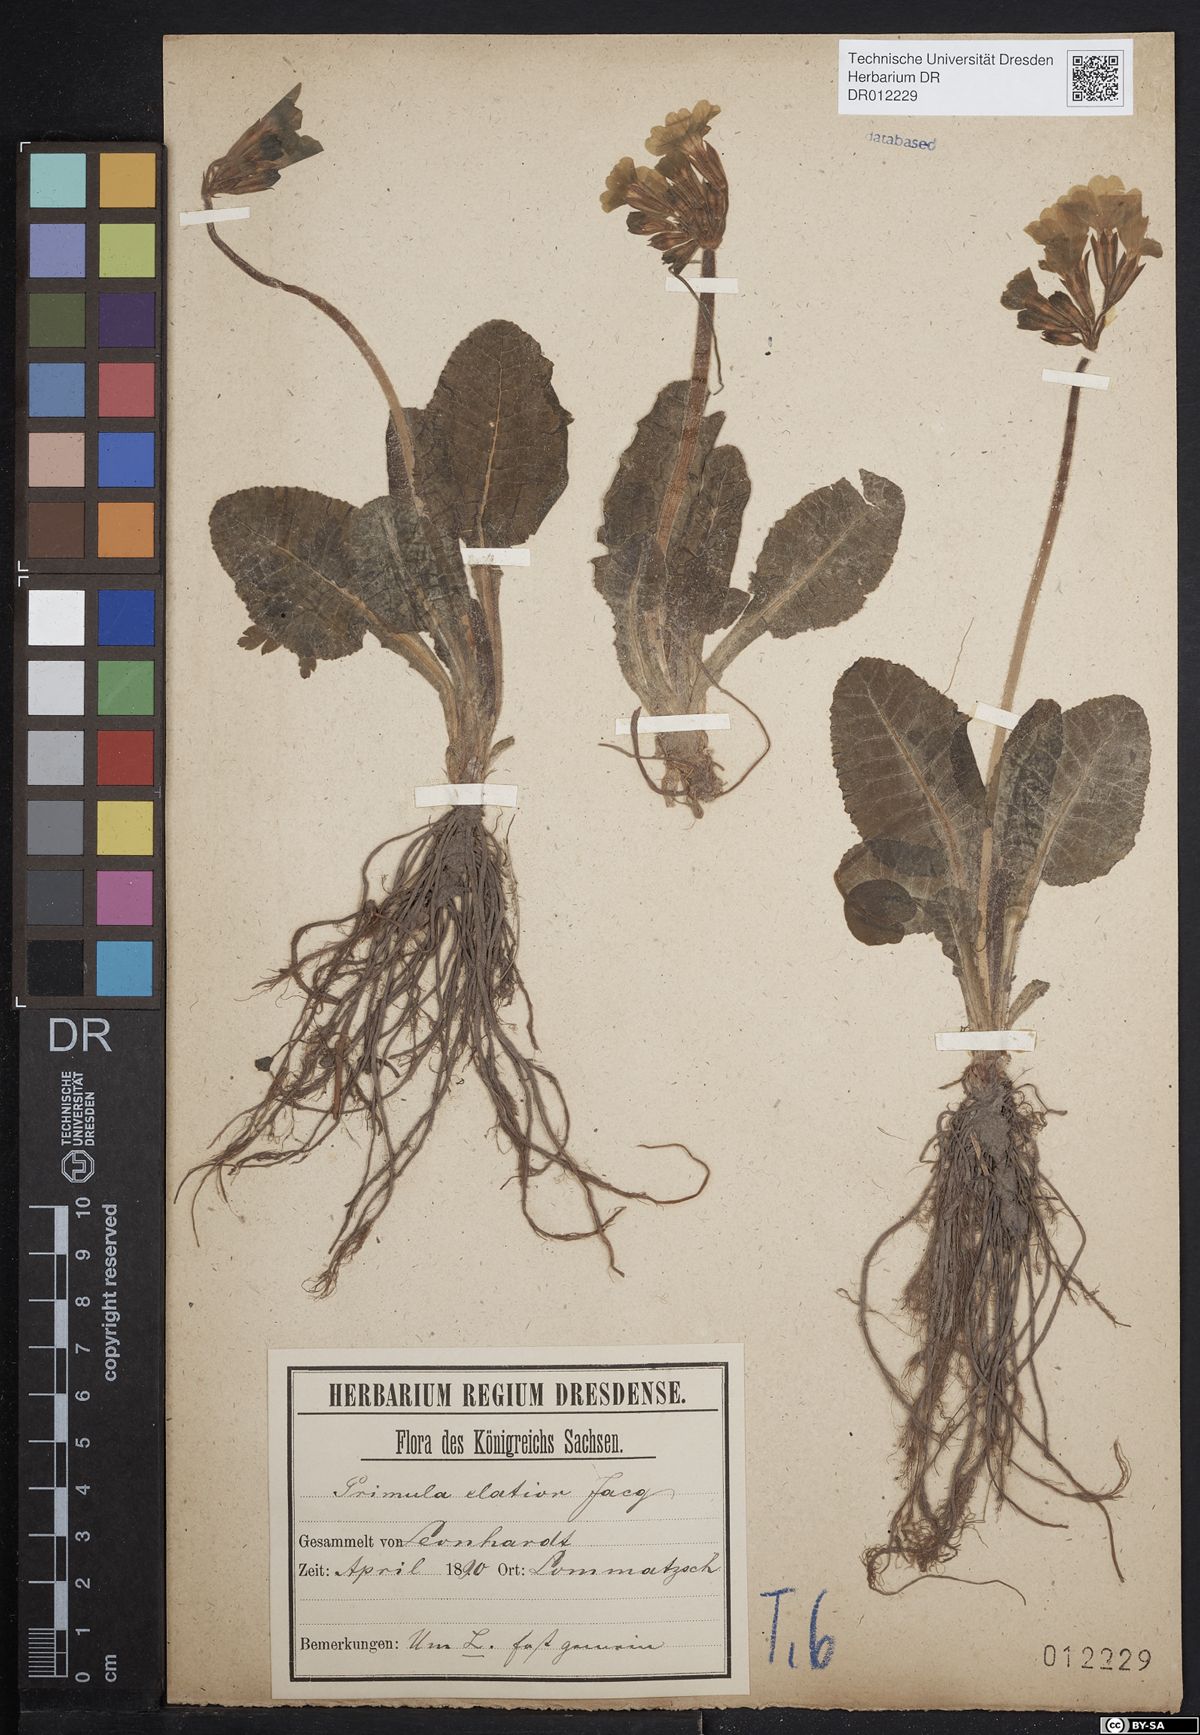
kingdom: Plantae
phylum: Tracheophyta
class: Magnoliopsida
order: Ericales
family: Primulaceae
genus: Primula
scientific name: Primula elatior
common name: Oxlip
